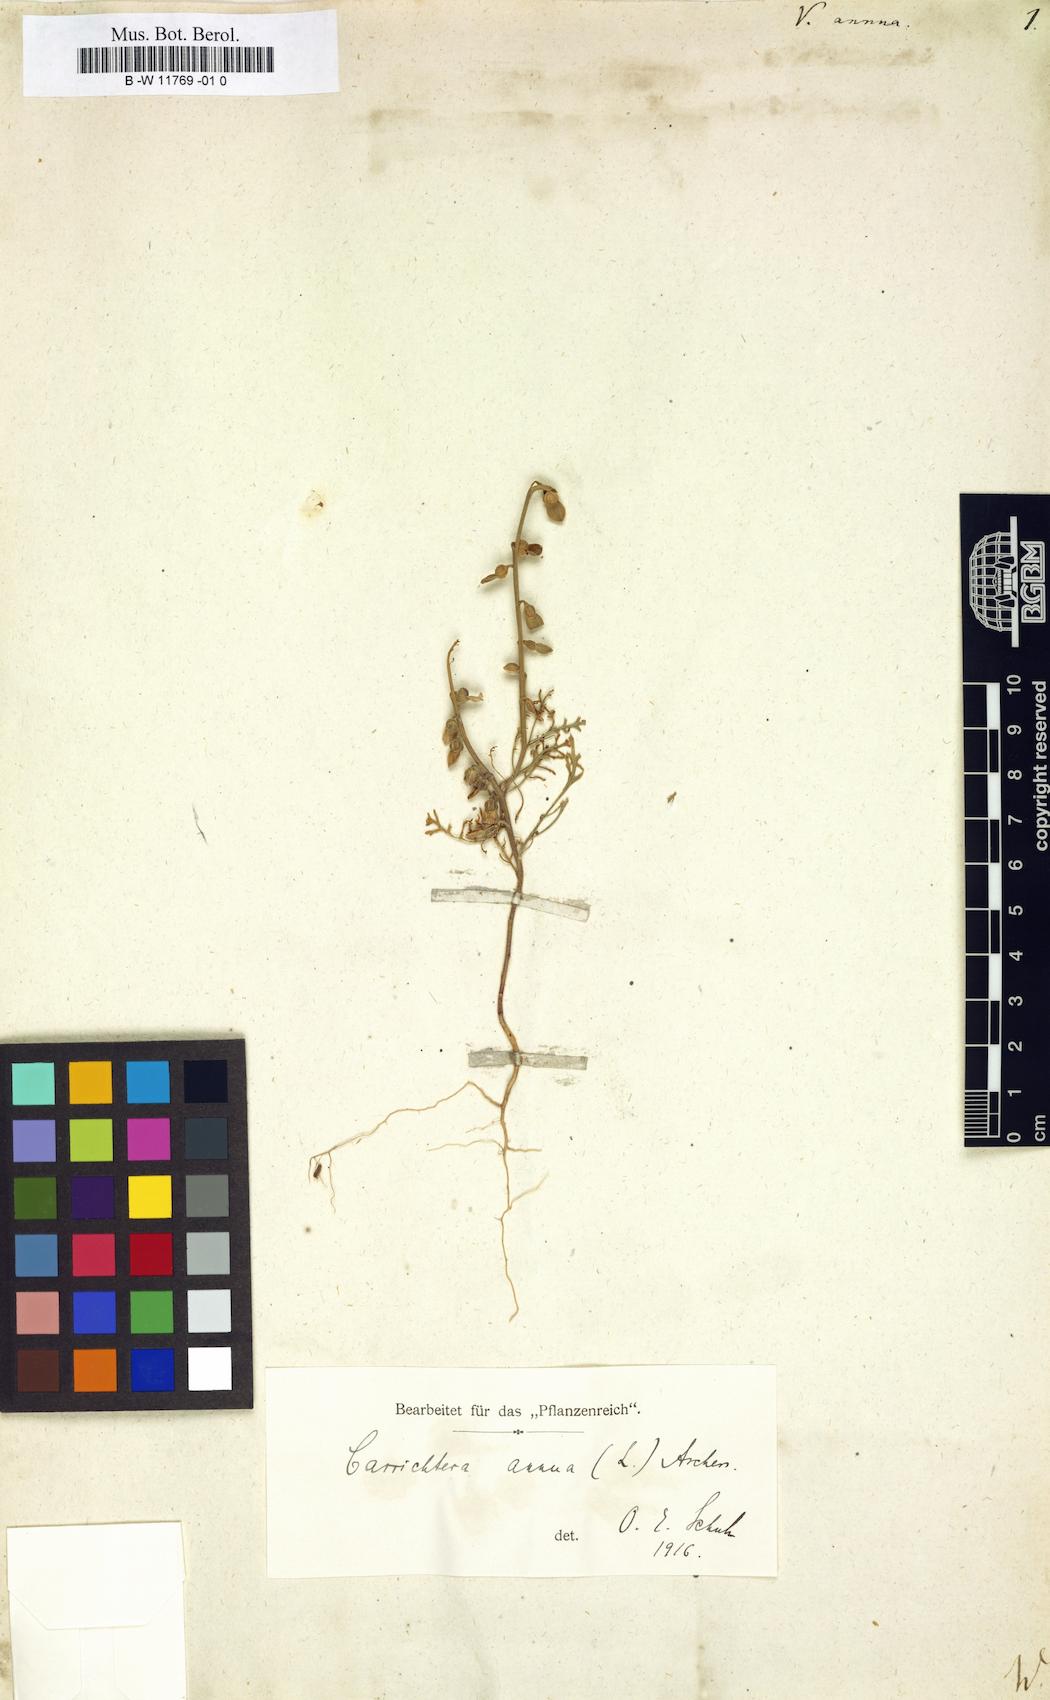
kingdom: Plantae
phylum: Tracheophyta
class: Magnoliopsida
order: Brassicales
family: Brassicaceae
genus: Carrichtera
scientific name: Carrichtera annua
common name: Cress rocket
